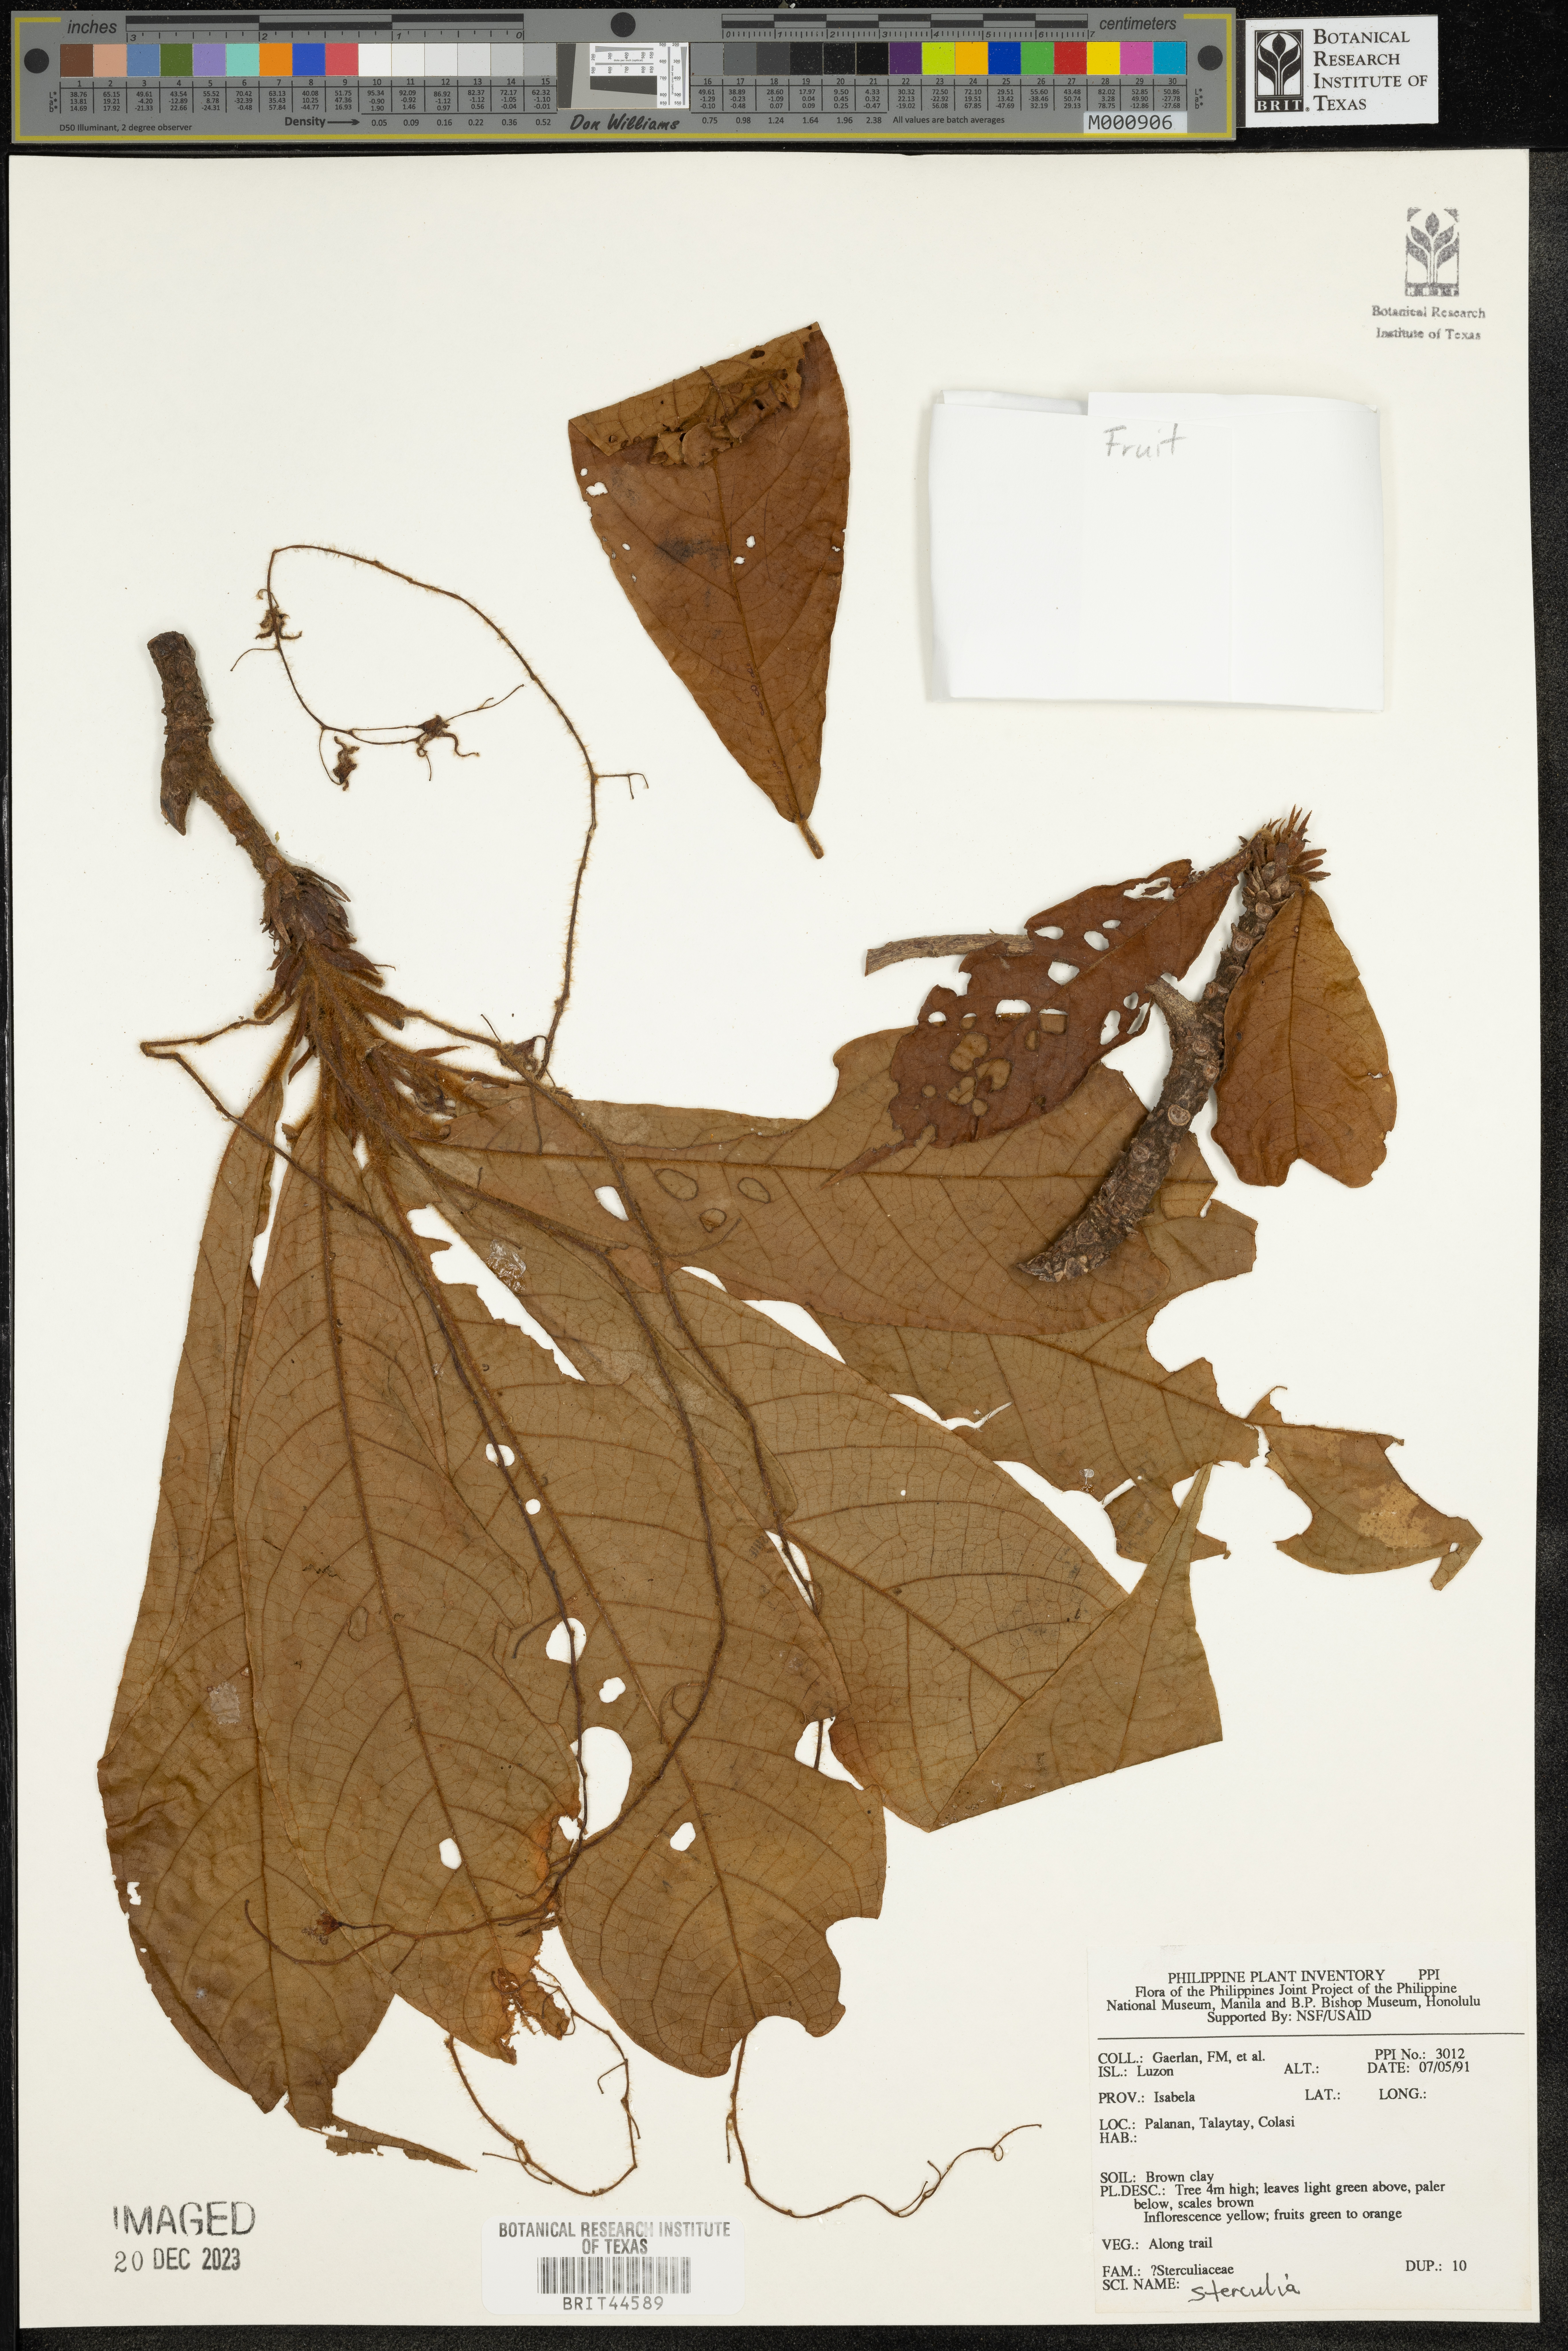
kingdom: Plantae
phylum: Tracheophyta
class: Magnoliopsida
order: Malvales
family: Malvaceae
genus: Sterculia
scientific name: Sterculia
